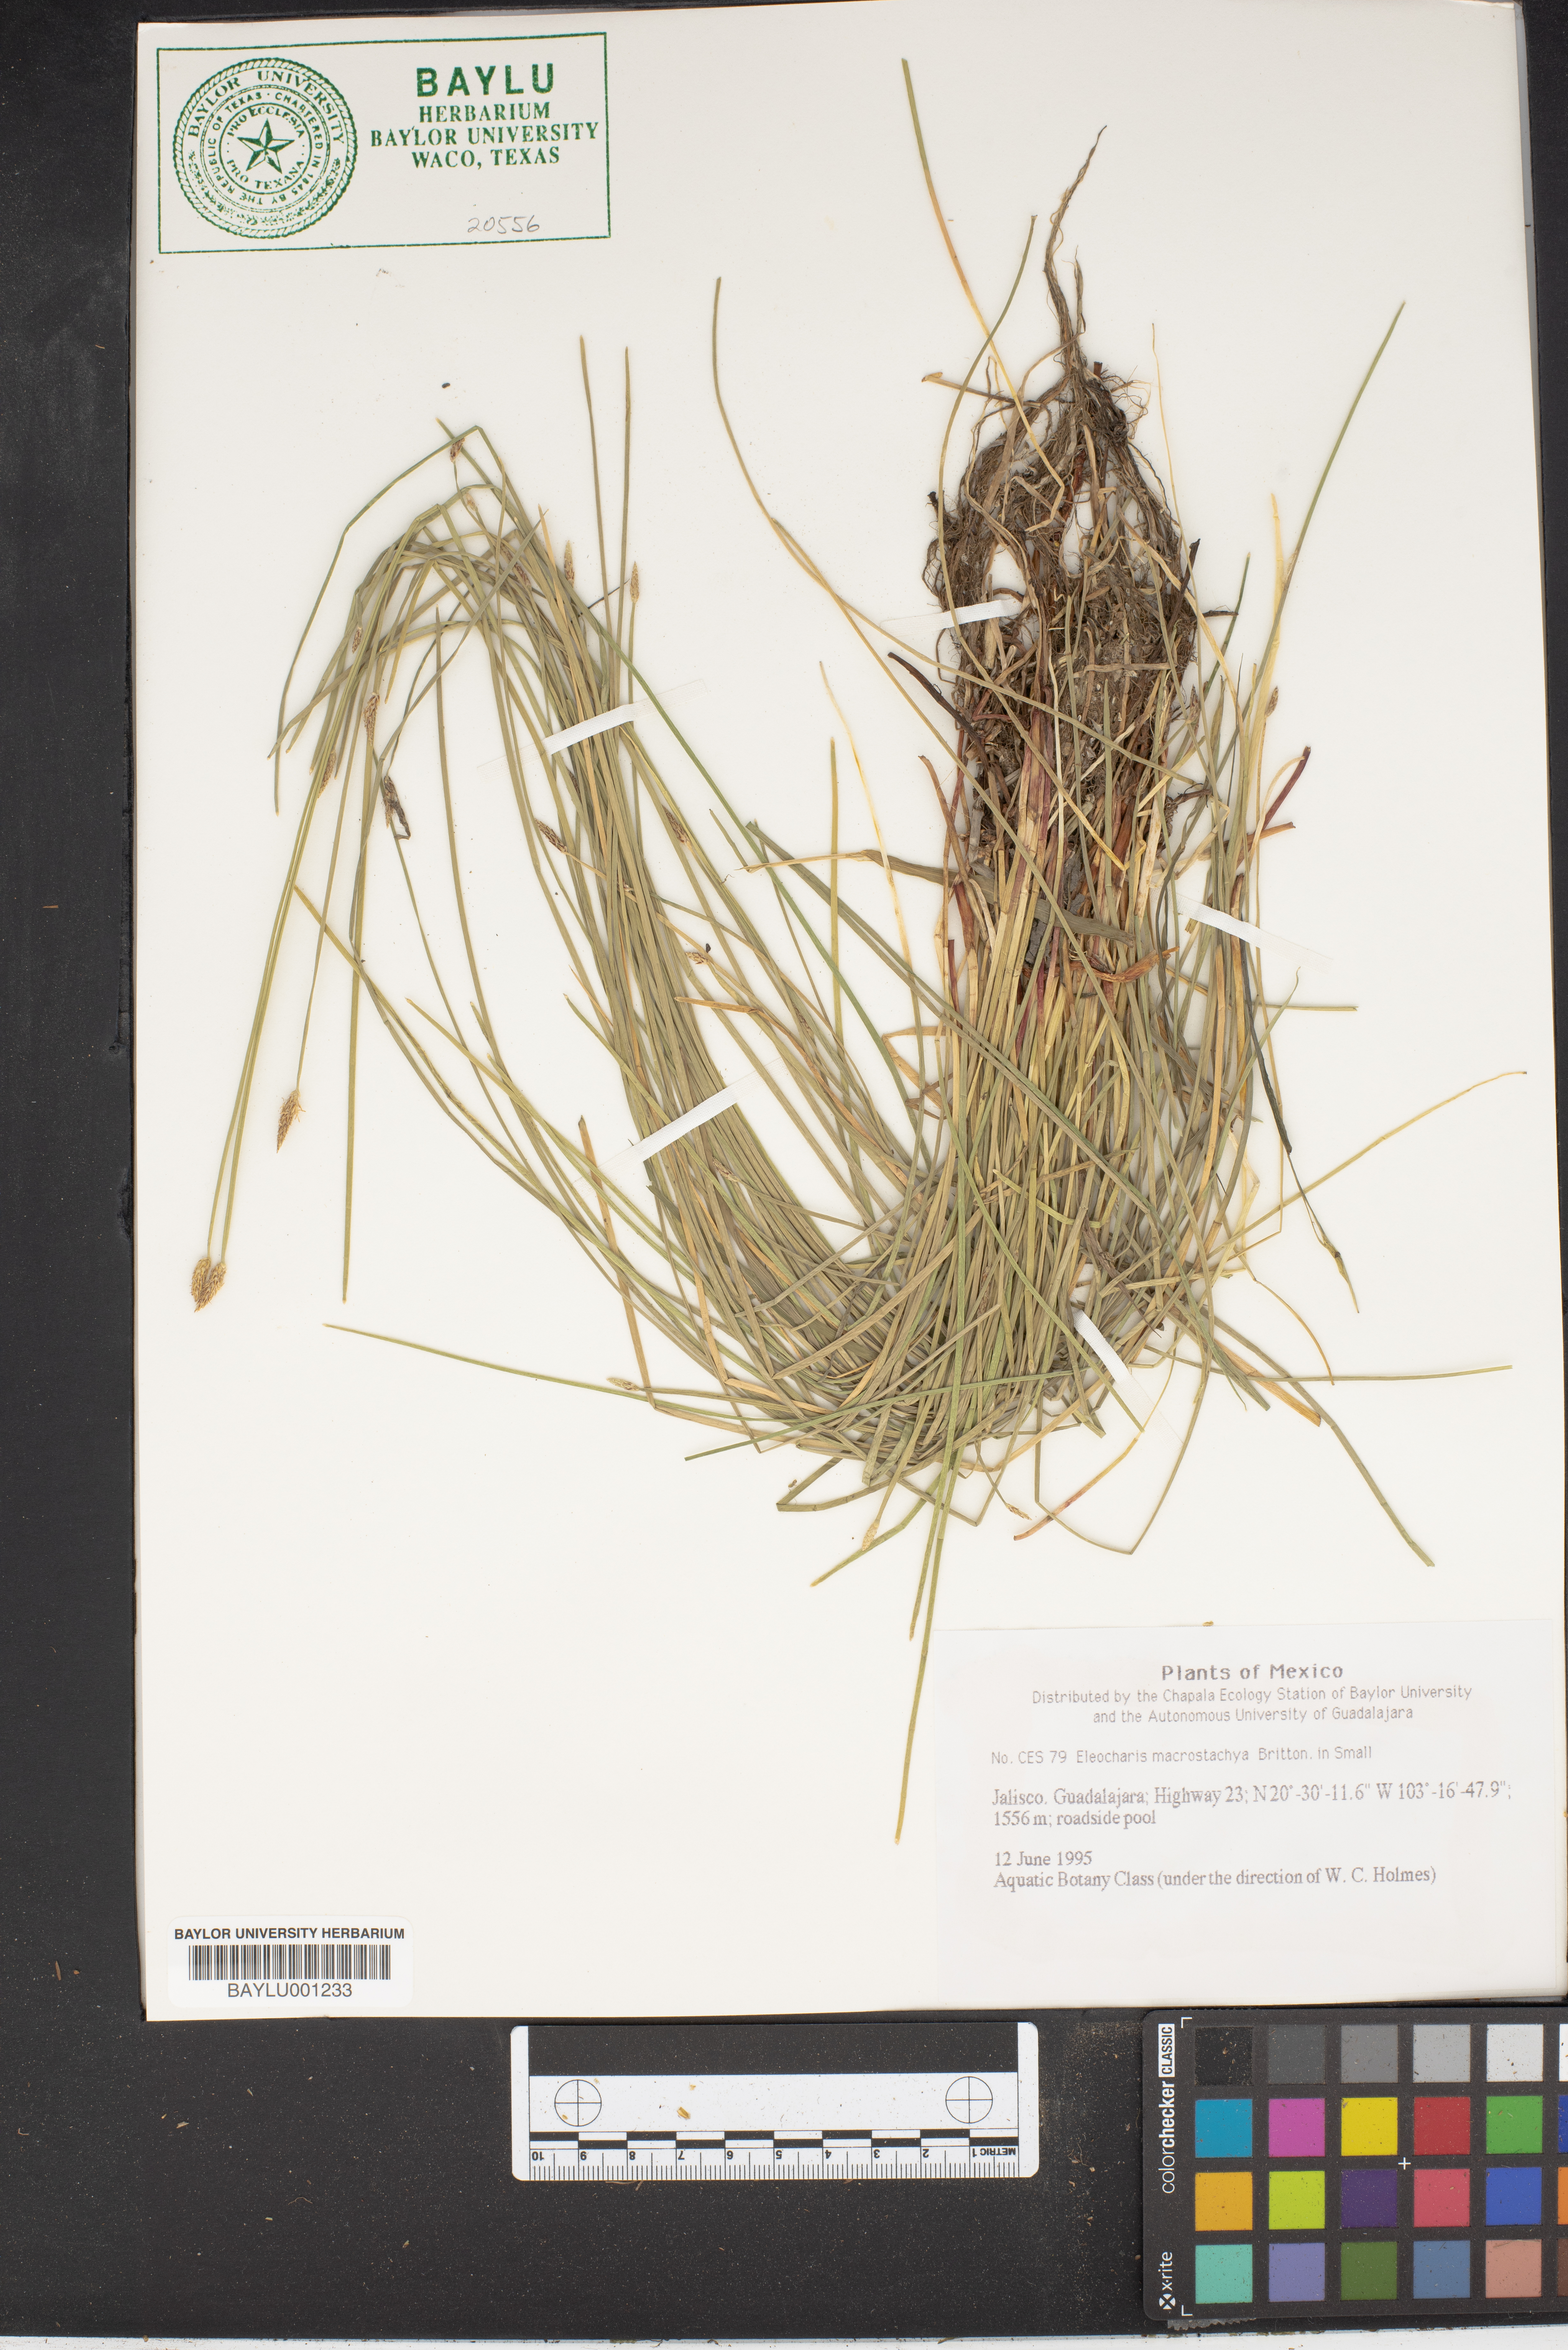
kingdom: Plantae
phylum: Tracheophyta
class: Liliopsida
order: Poales
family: Cyperaceae
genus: Eleocharis
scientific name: Eleocharis macrostachya
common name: Pale spikerush
